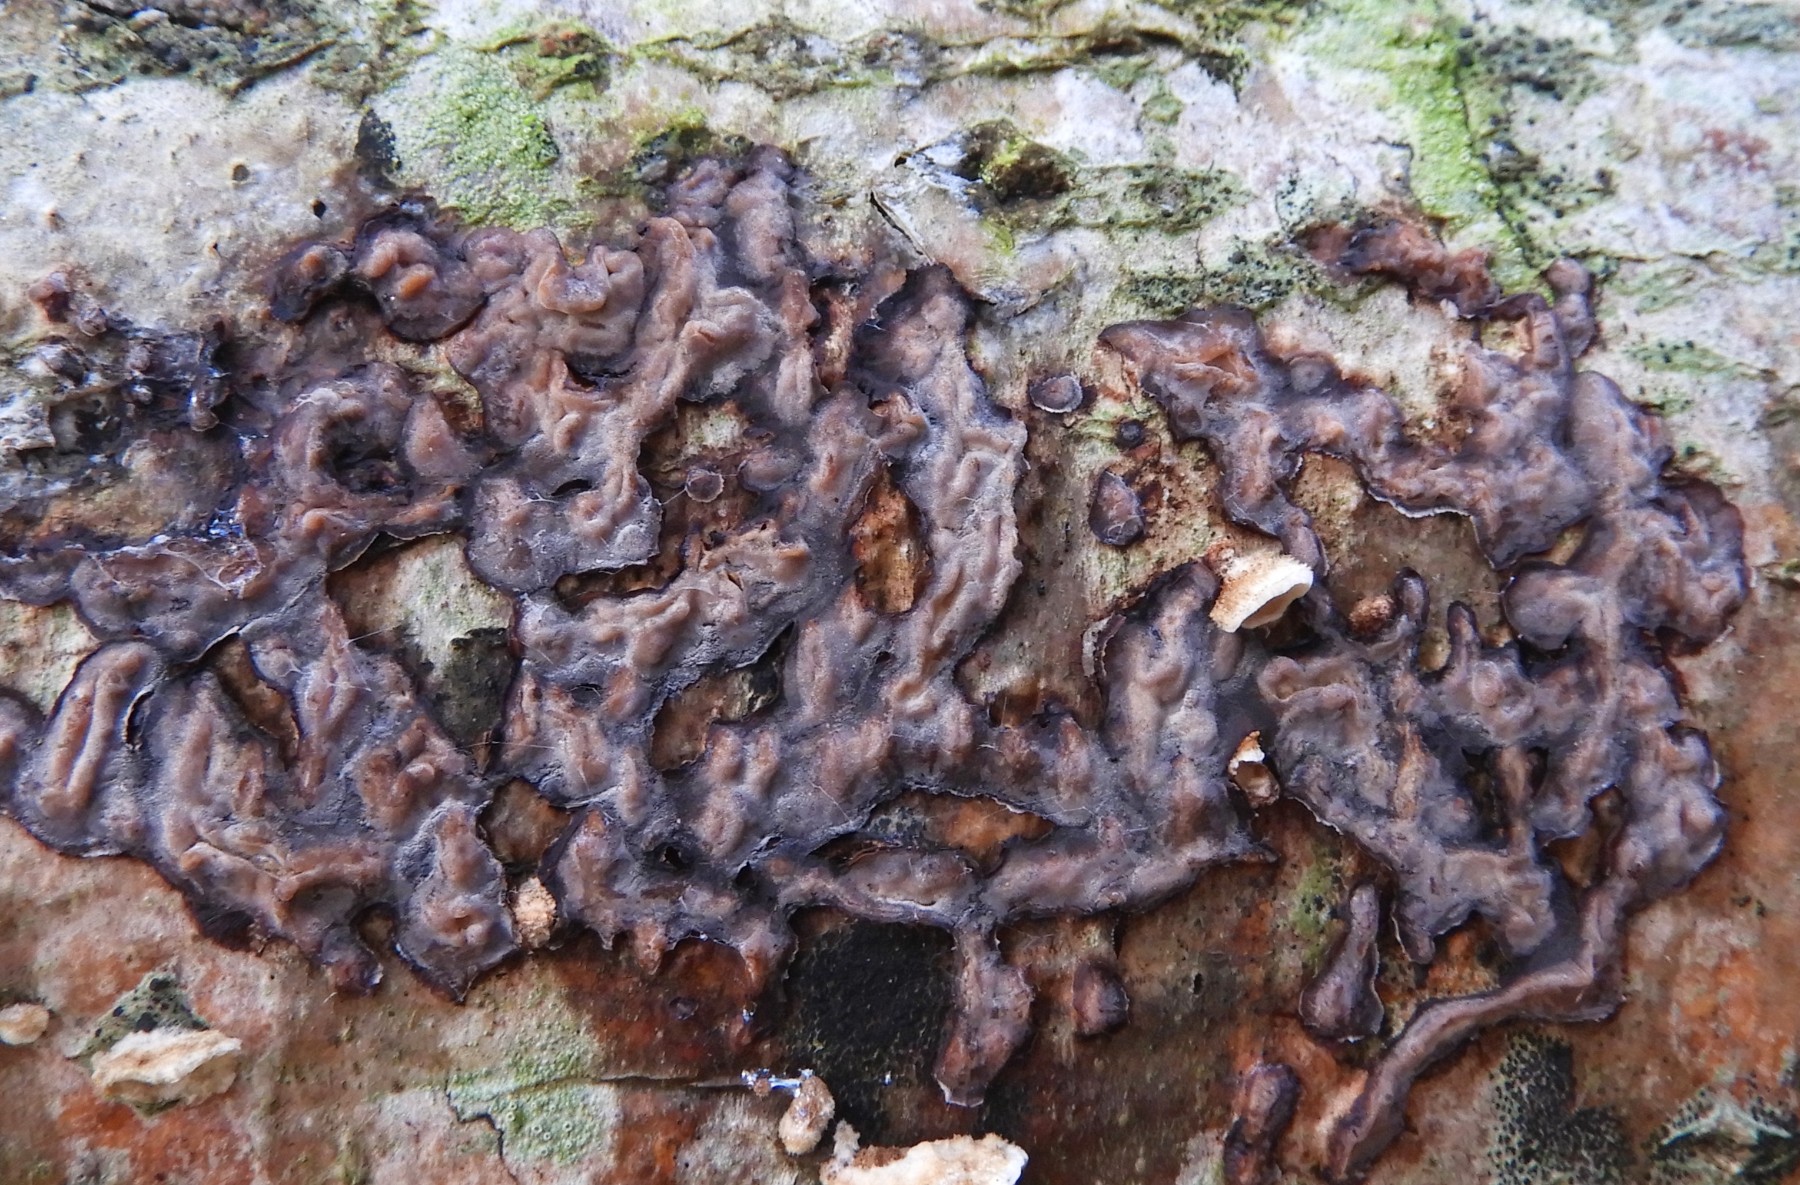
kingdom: Fungi
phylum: Basidiomycota
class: Agaricomycetes
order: Russulales
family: Peniophoraceae
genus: Peniophora
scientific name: Peniophora quercina
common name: ege-voksskind
